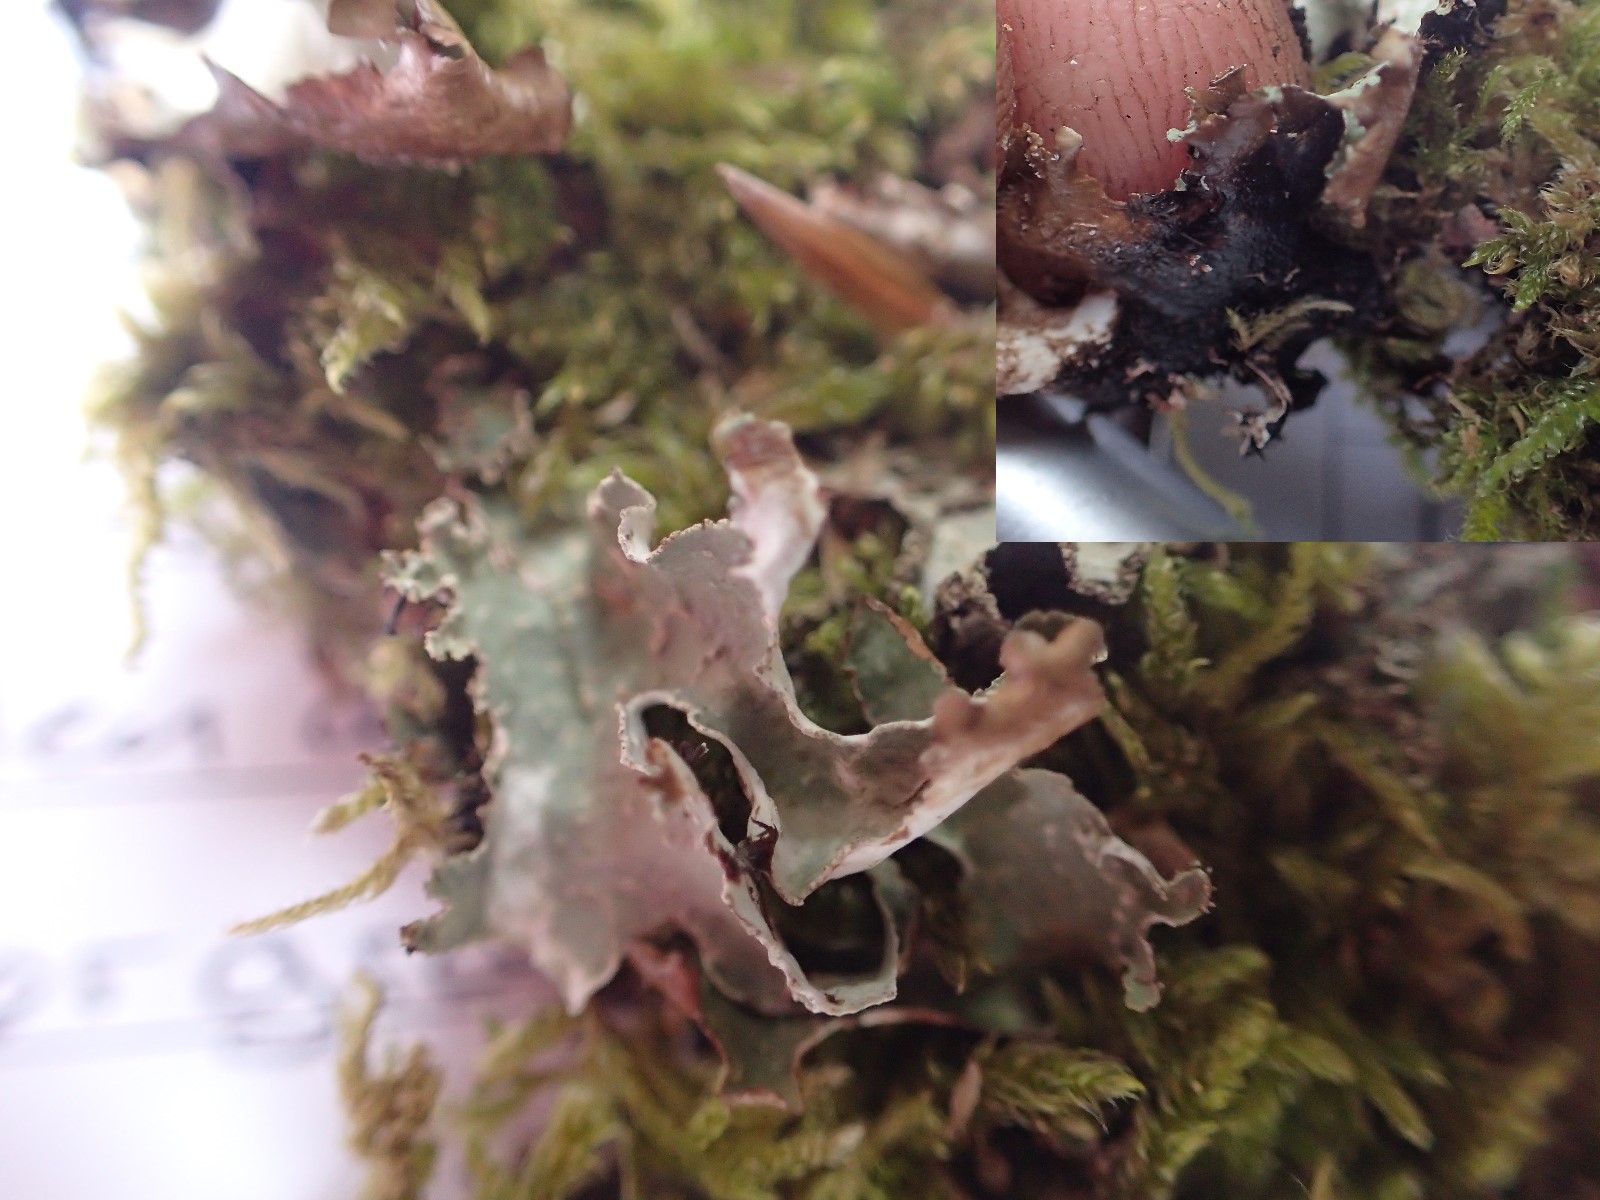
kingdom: Fungi
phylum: Ascomycota
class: Lecanoromycetes
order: Lecanorales
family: Parmeliaceae
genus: Parmelia
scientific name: Parmelia sulcata
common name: rynket skållav
